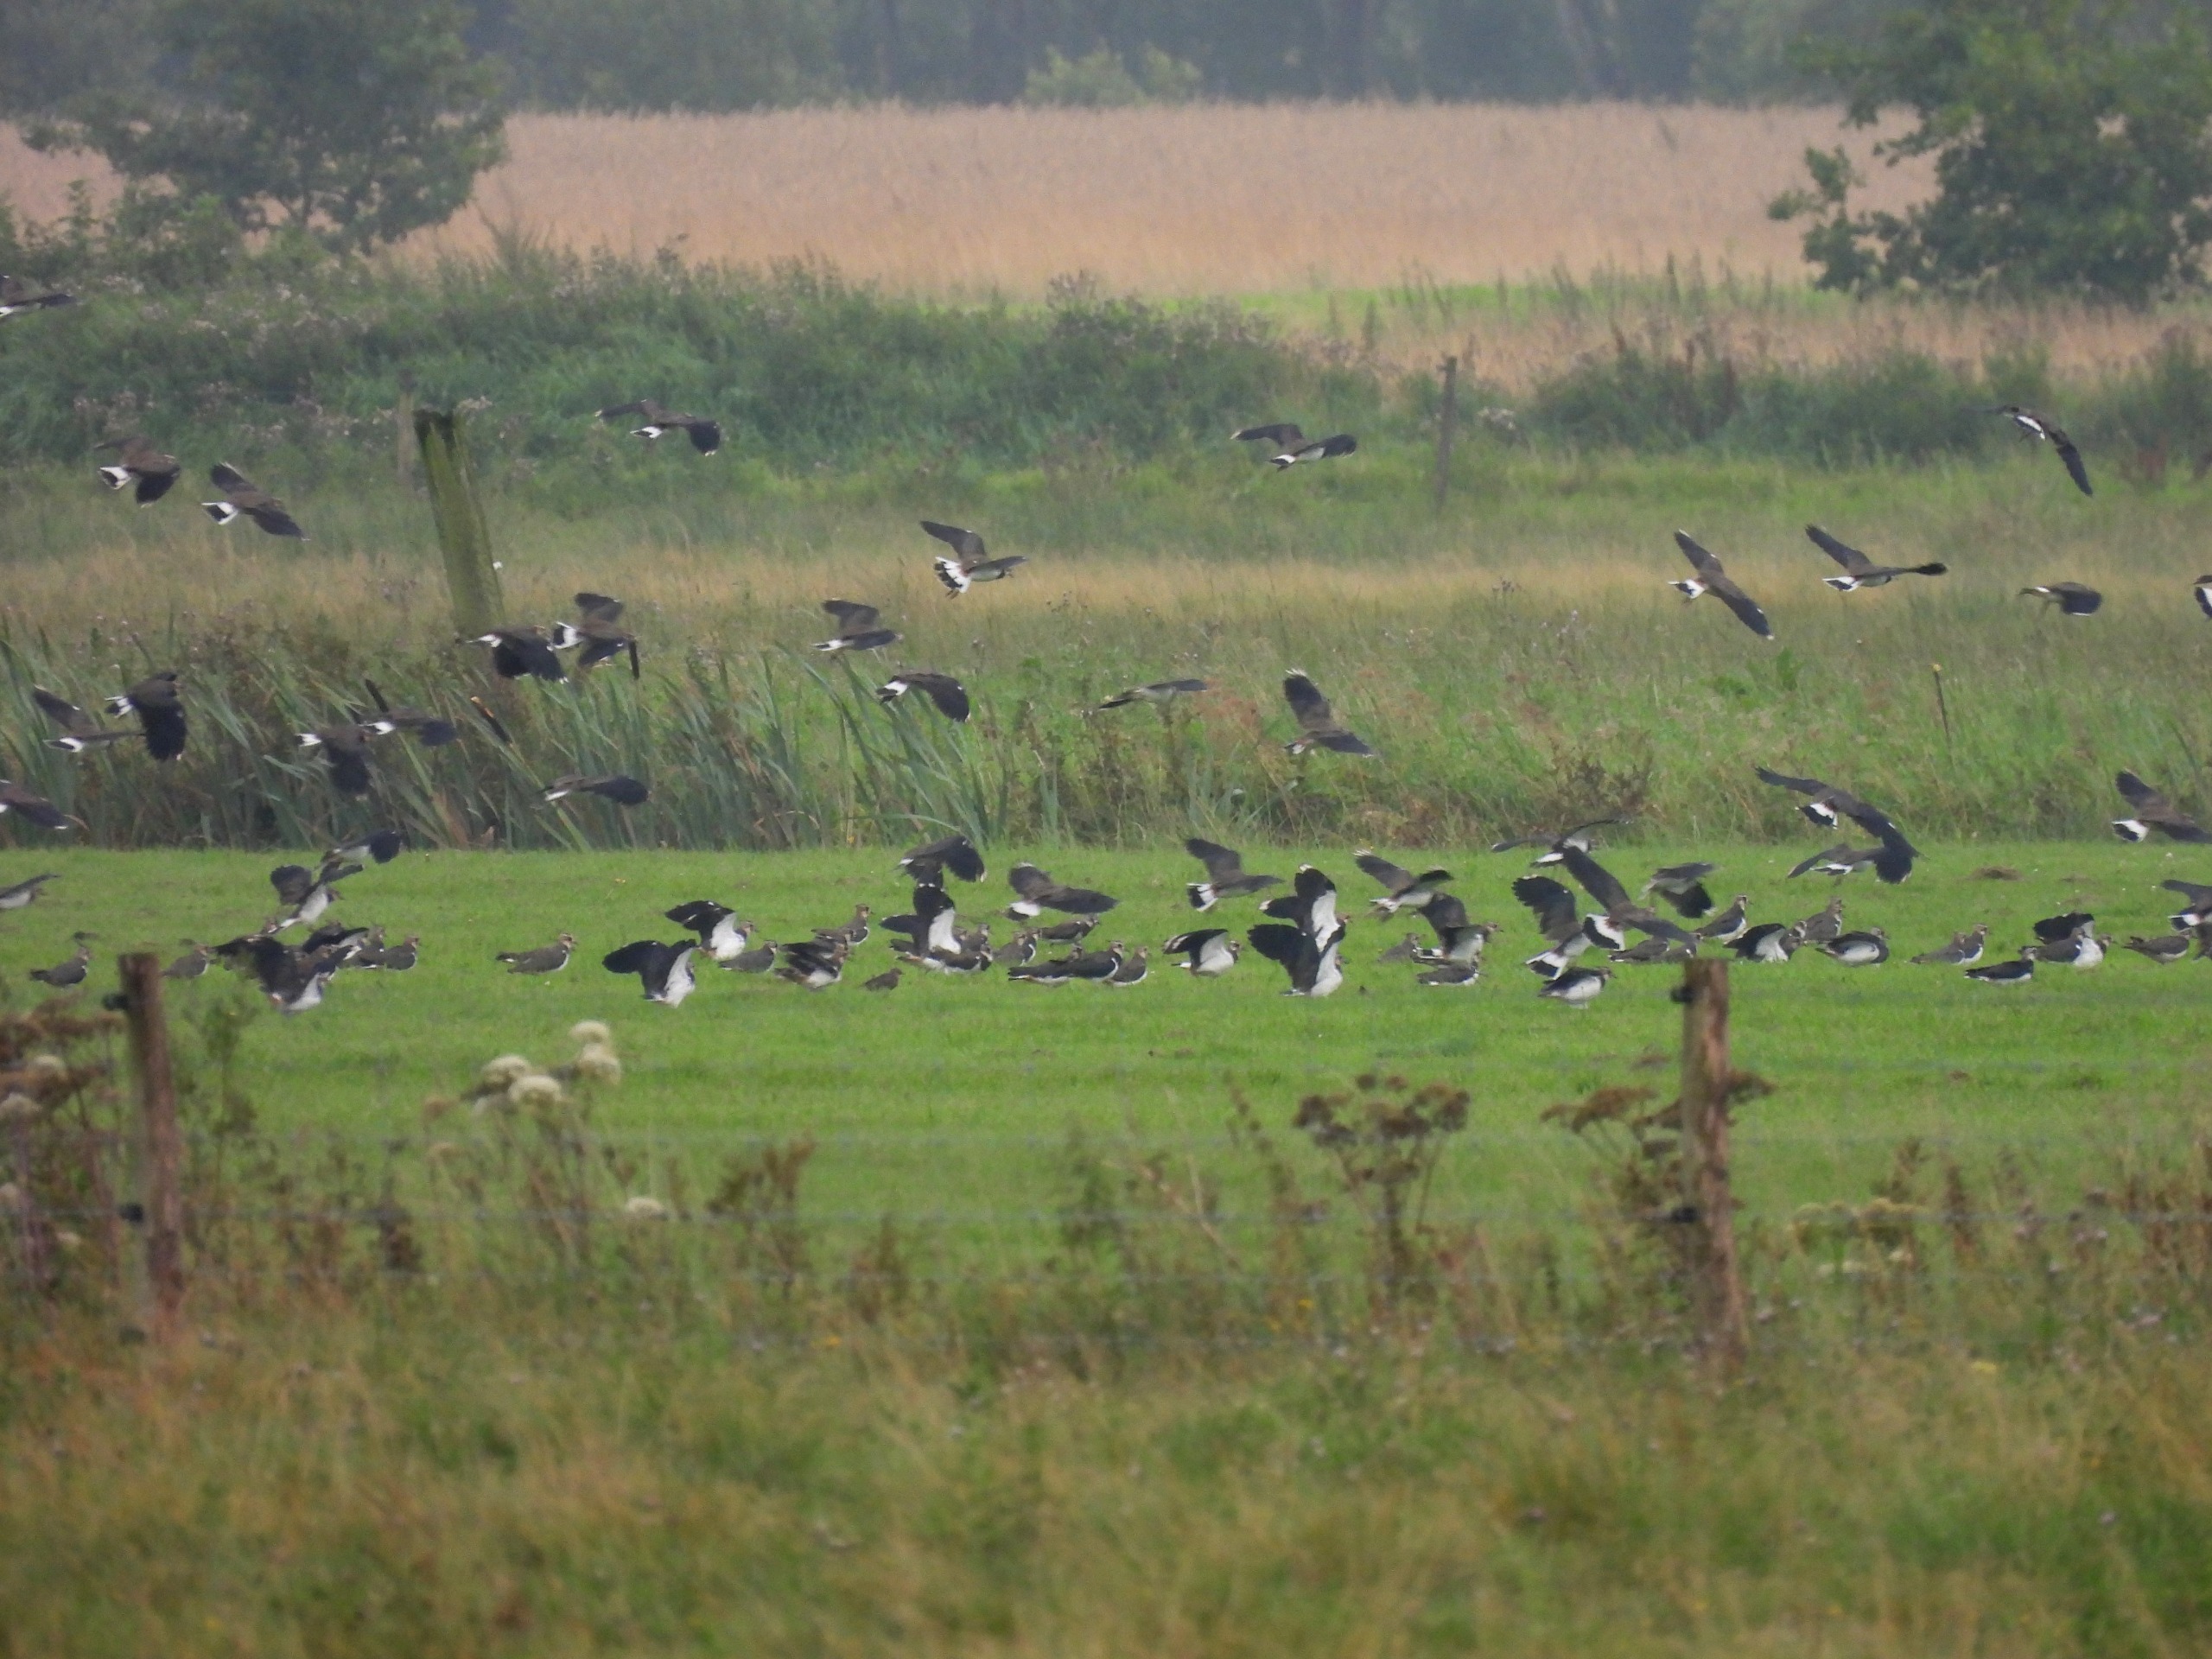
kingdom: Animalia
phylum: Chordata
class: Aves
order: Charadriiformes
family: Charadriidae
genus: Vanellus
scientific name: Vanellus vanellus
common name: Vibe
